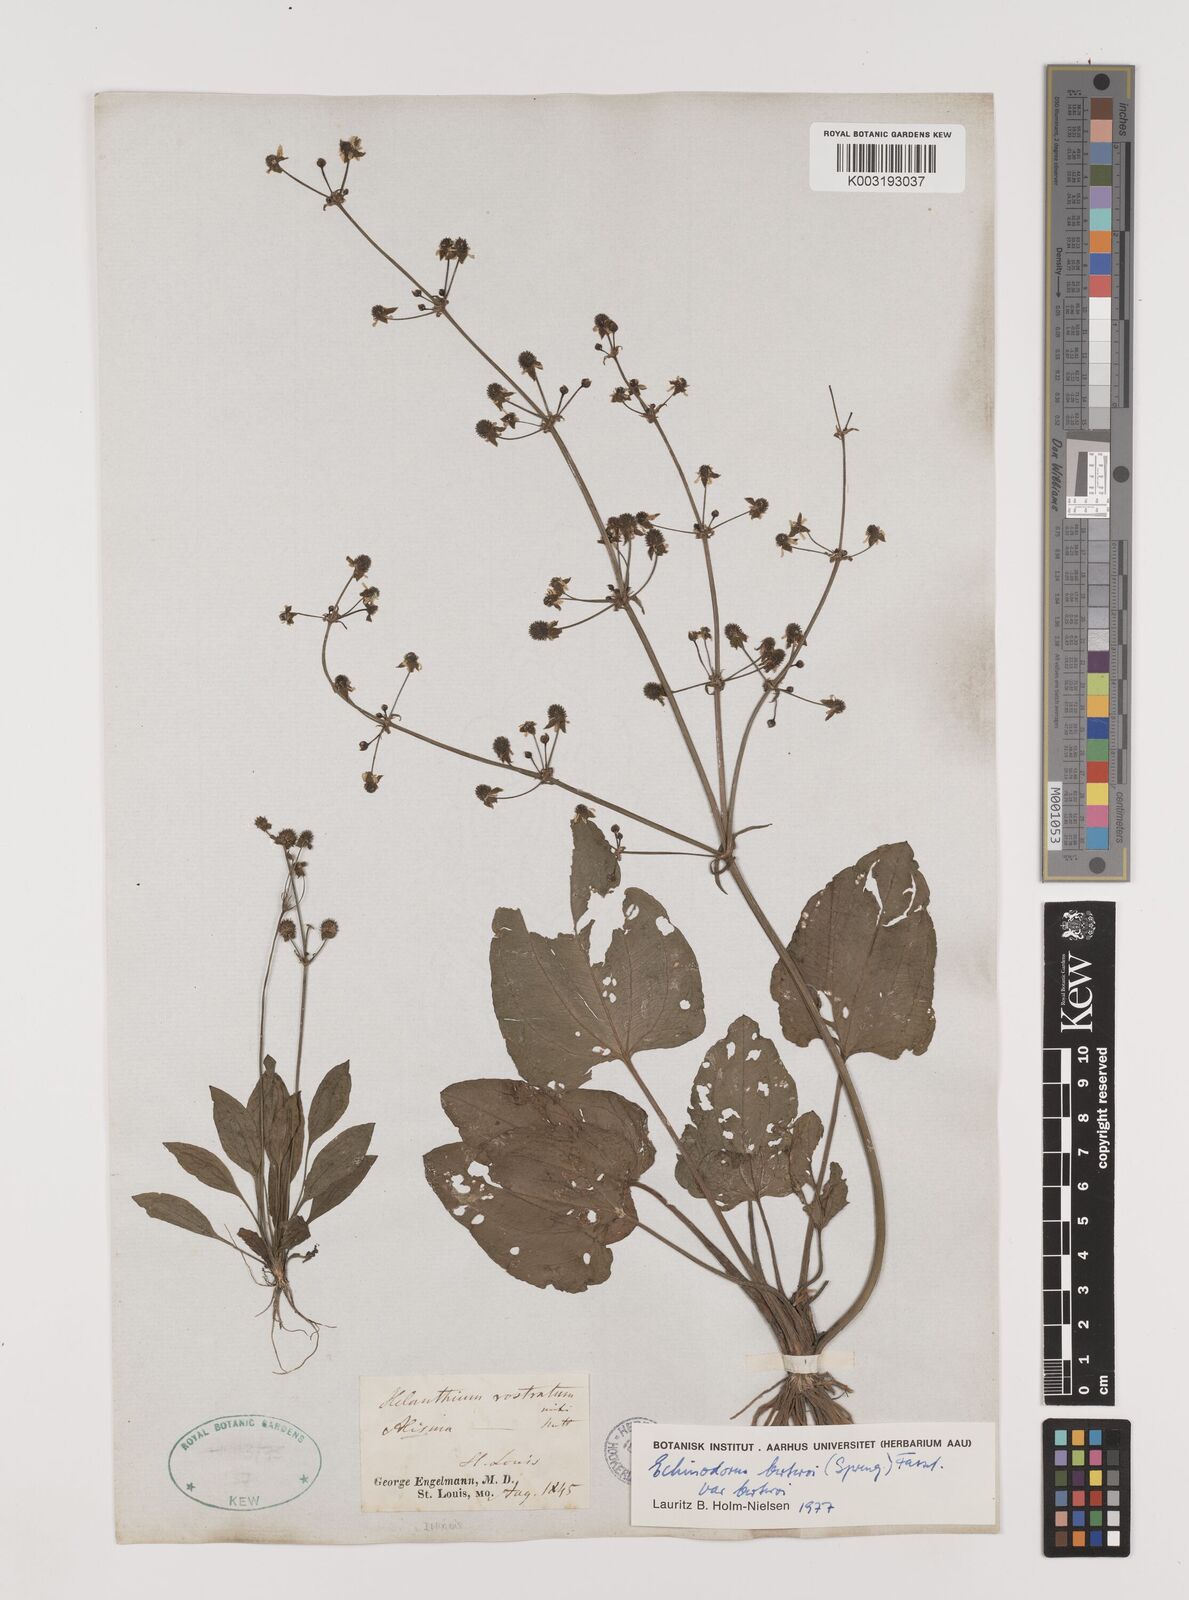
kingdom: Plantae
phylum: Tracheophyta
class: Liliopsida
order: Alismatales
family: Alismataceae
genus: Echinodorus
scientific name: Echinodorus berteroi
